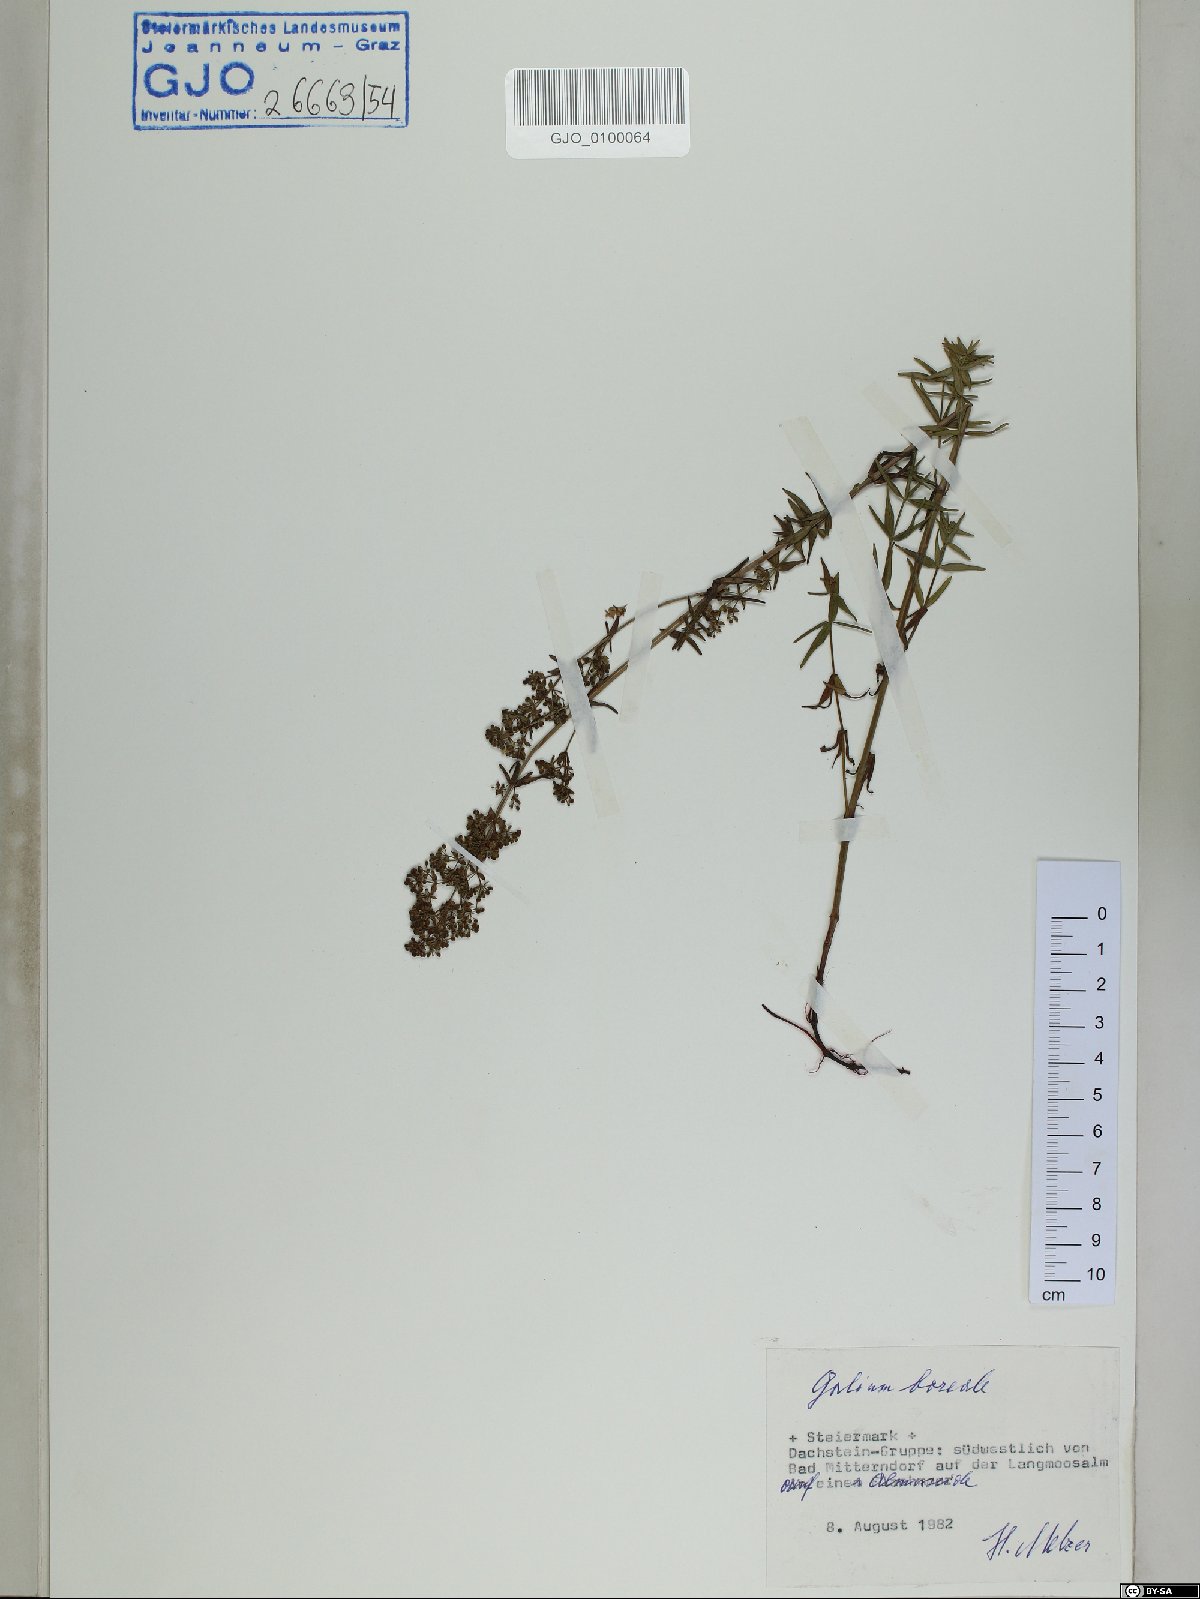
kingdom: Plantae
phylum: Tracheophyta
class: Magnoliopsida
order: Gentianales
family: Rubiaceae
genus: Galium
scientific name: Galium boreale
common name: Northern bedstraw
